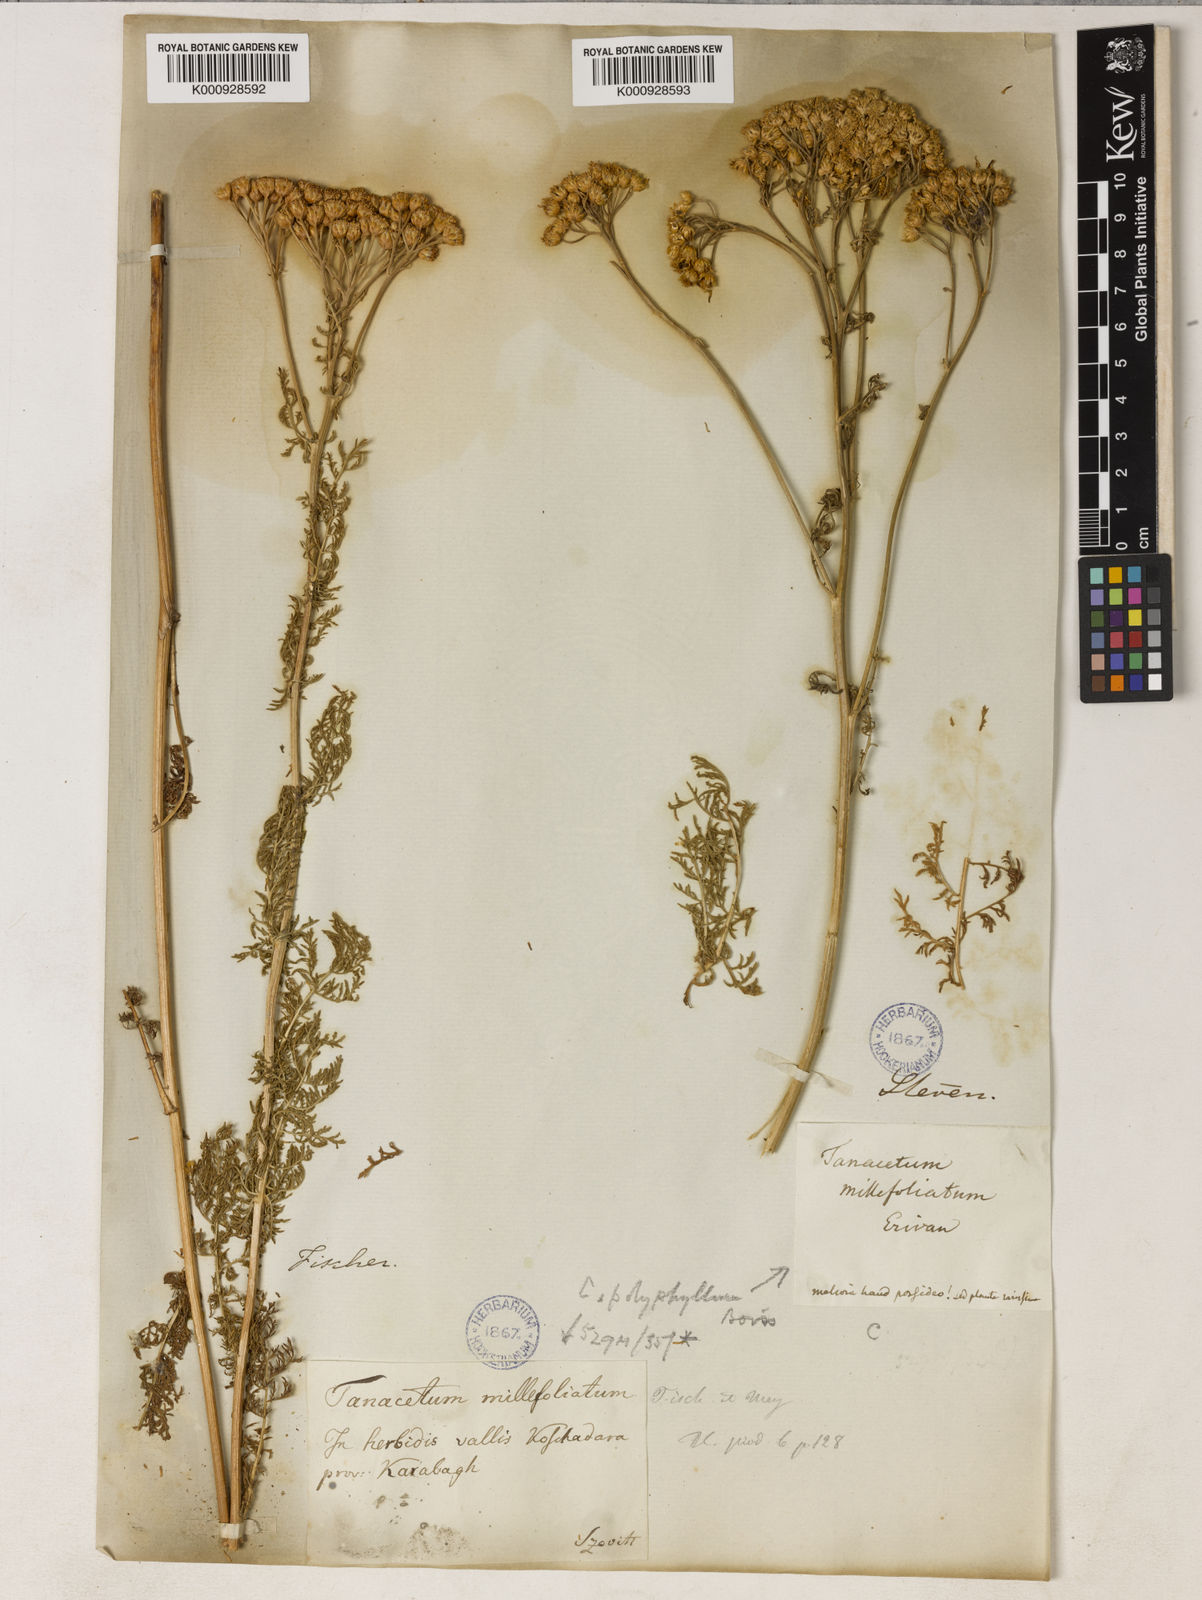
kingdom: Plantae
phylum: Tracheophyta
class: Magnoliopsida
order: Asterales
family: Asteraceae
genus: Tanacetum
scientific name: Tanacetum abrotanifolium
